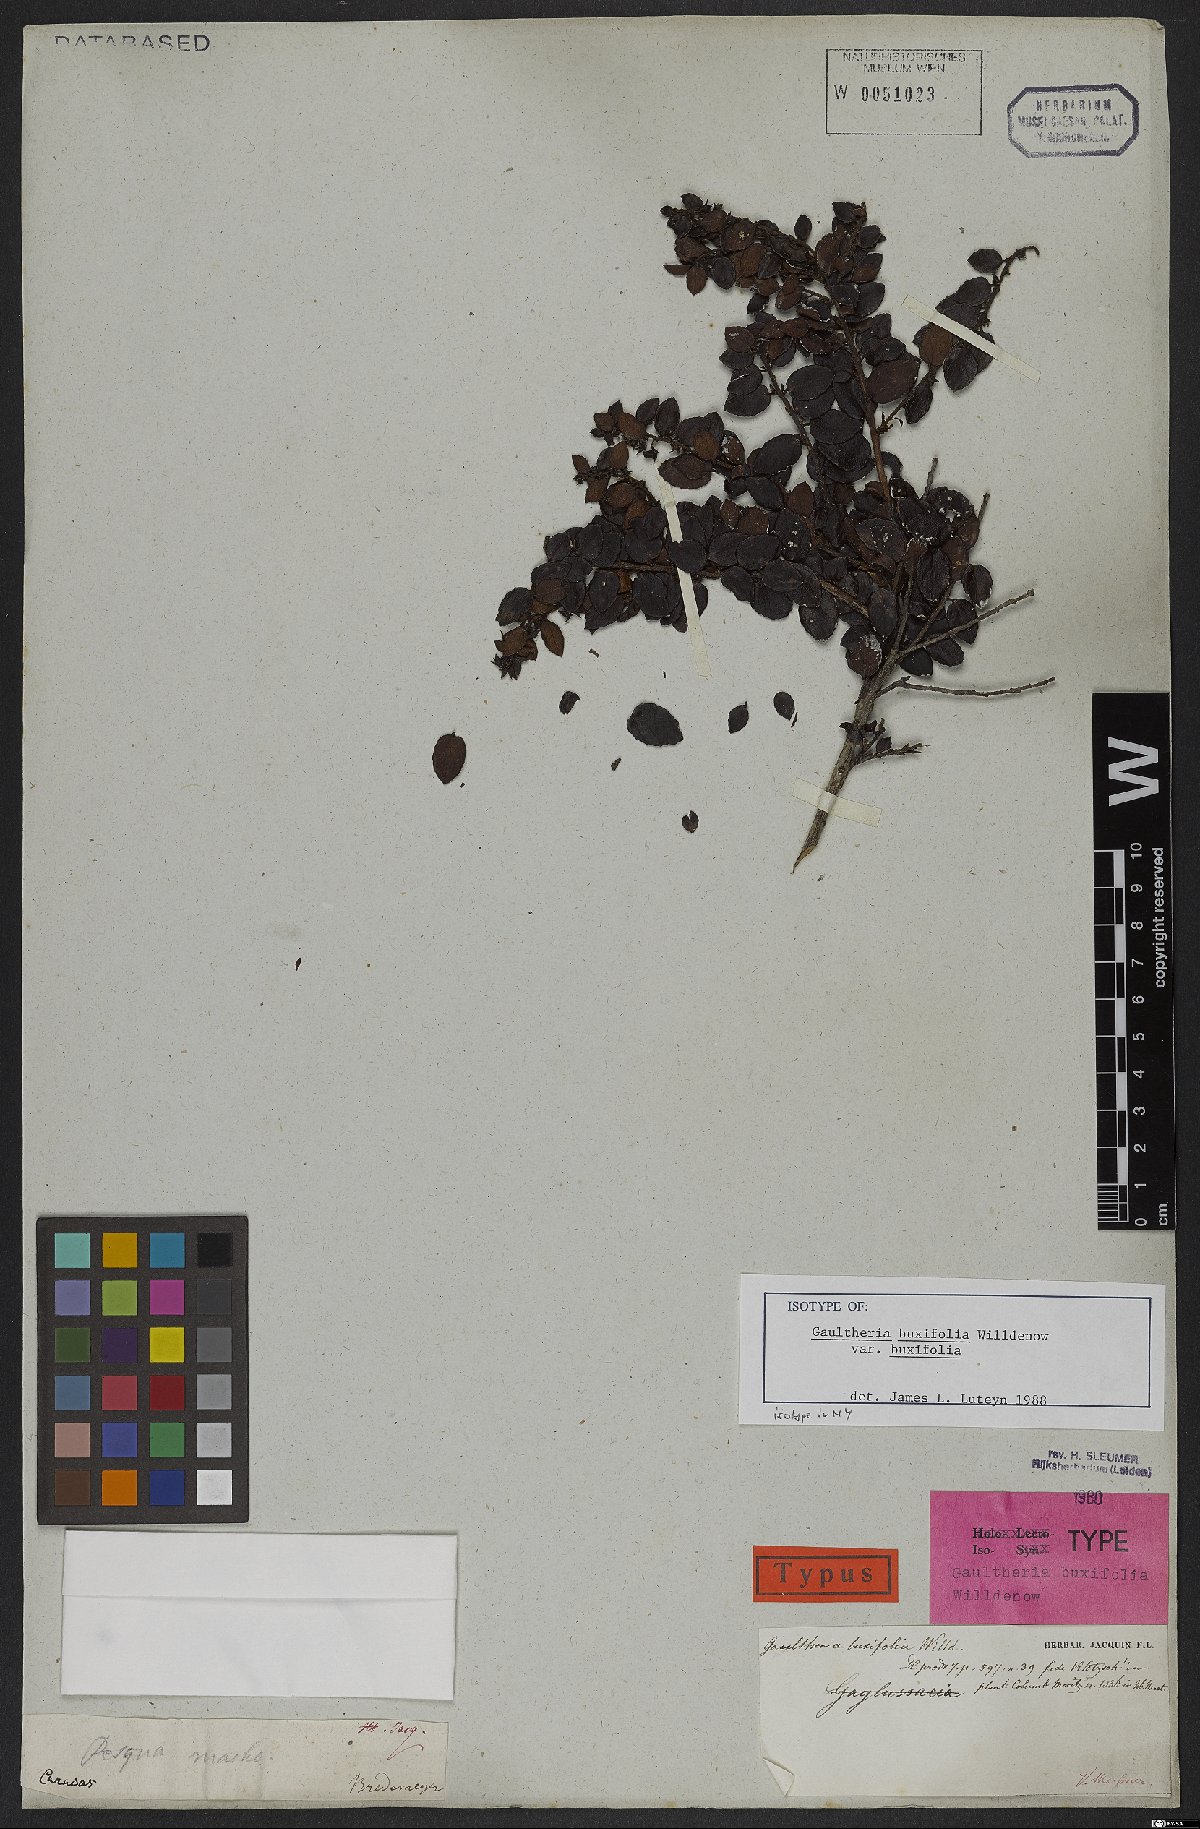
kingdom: Plantae
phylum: Tracheophyta
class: Magnoliopsida
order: Ericales
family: Ericaceae
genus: Gaultheria
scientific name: Gaultheria buxifolia
